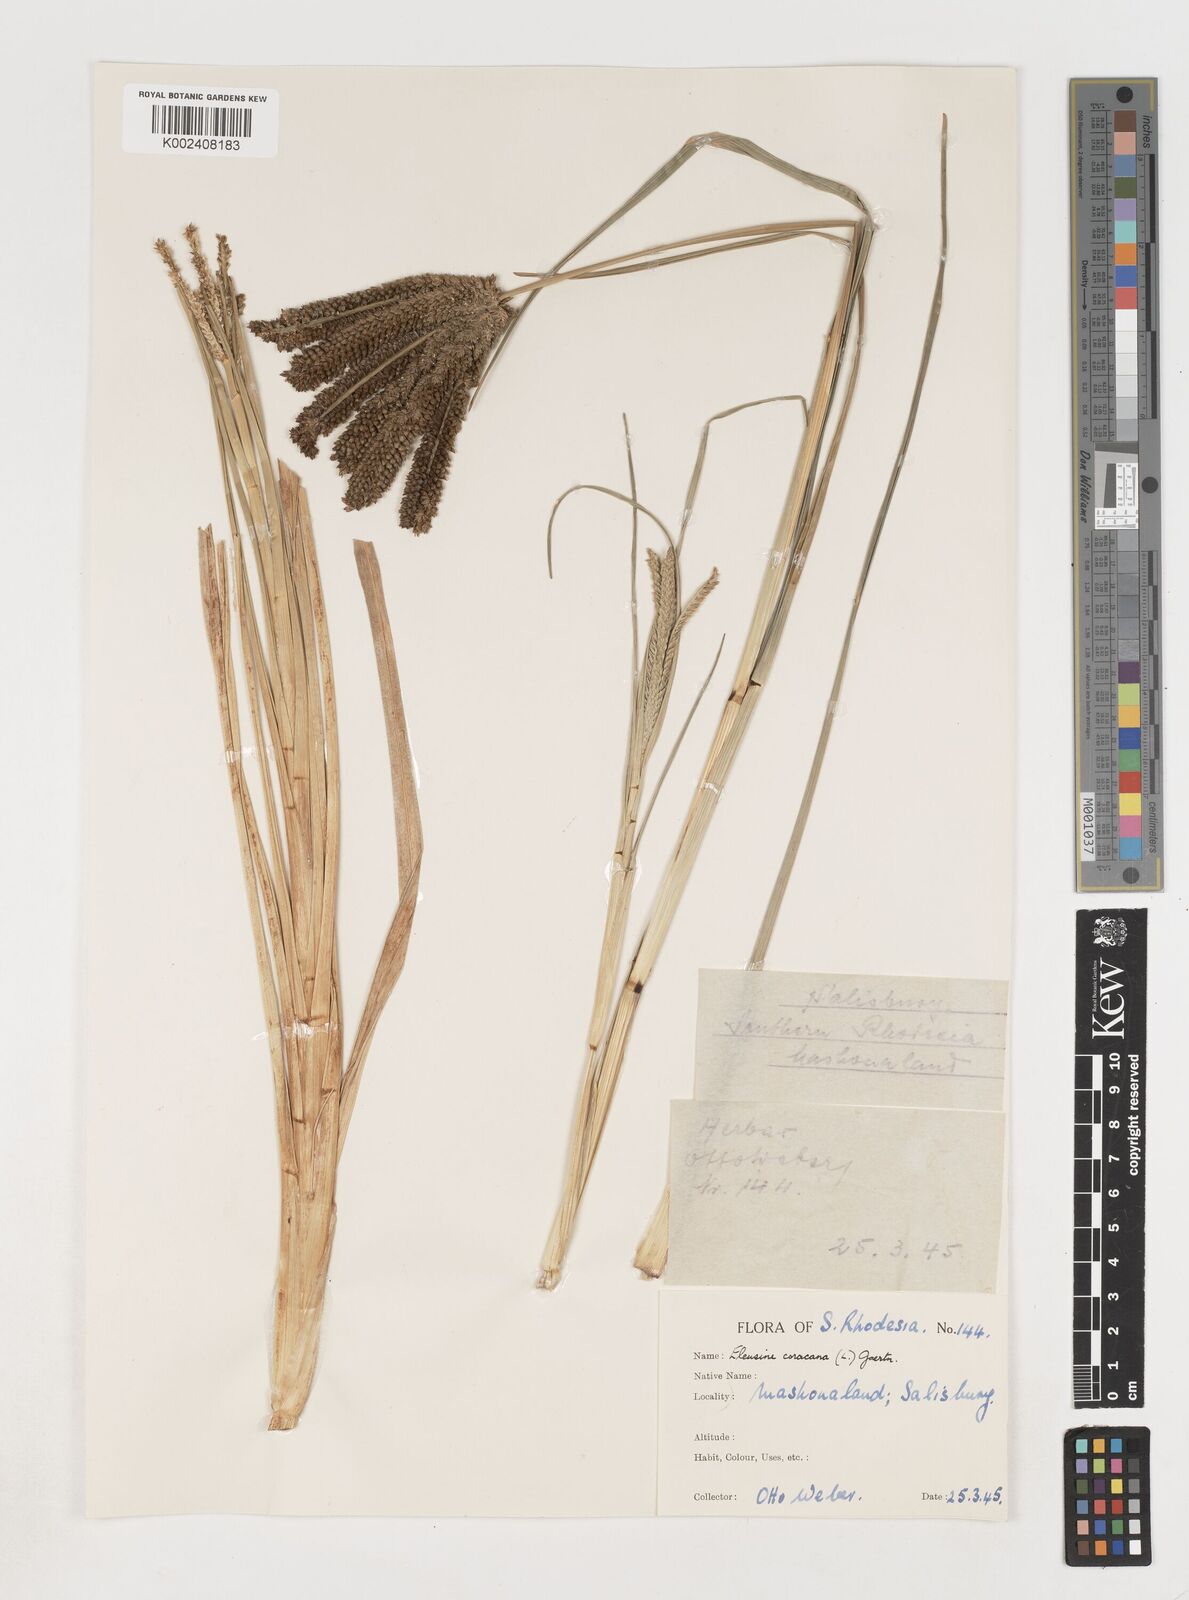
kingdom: Plantae
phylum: Tracheophyta
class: Liliopsida
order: Poales
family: Poaceae
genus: Eleusine
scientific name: Eleusine coracana
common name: Finger millet
